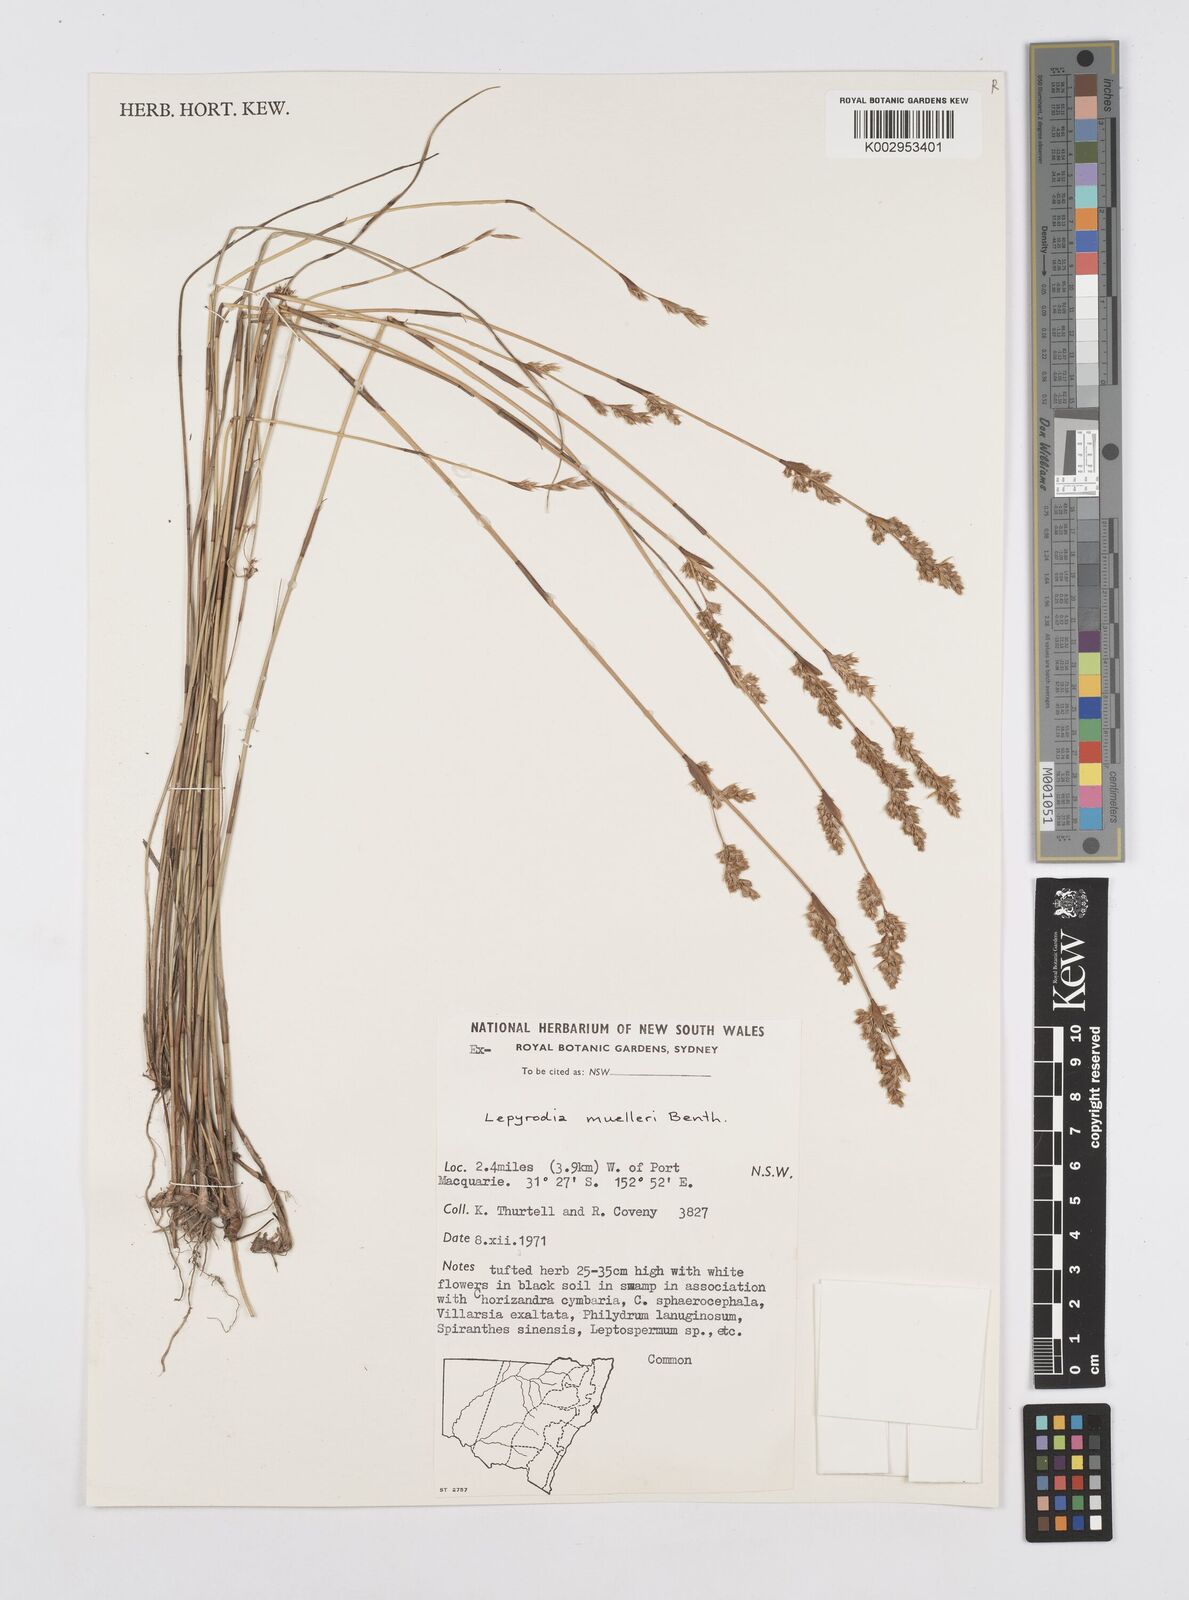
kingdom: Plantae
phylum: Tracheophyta
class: Liliopsida
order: Poales
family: Restionaceae
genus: Lepyrodia
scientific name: Lepyrodia muelleri
